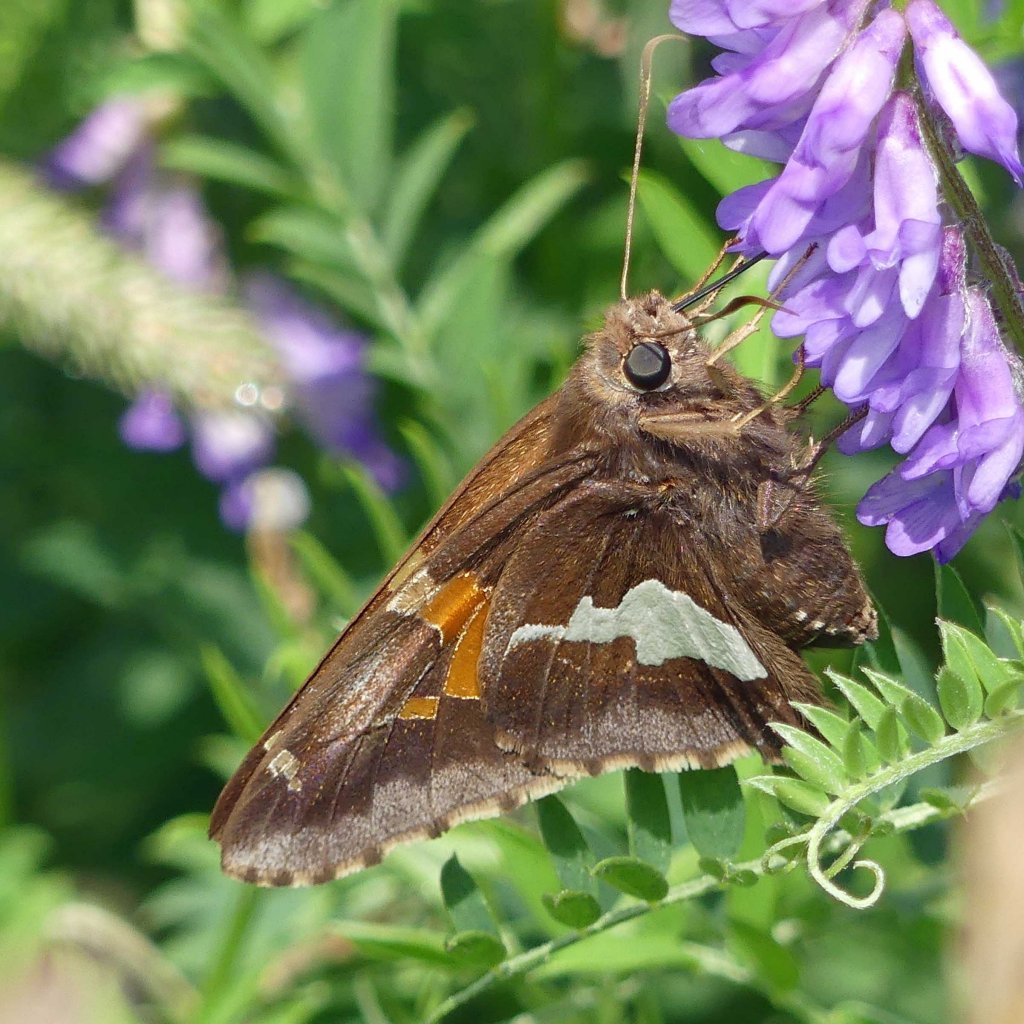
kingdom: Animalia
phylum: Arthropoda
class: Insecta
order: Lepidoptera
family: Hesperiidae
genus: Epargyreus
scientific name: Epargyreus clarus
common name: Silver-spotted Skipper
